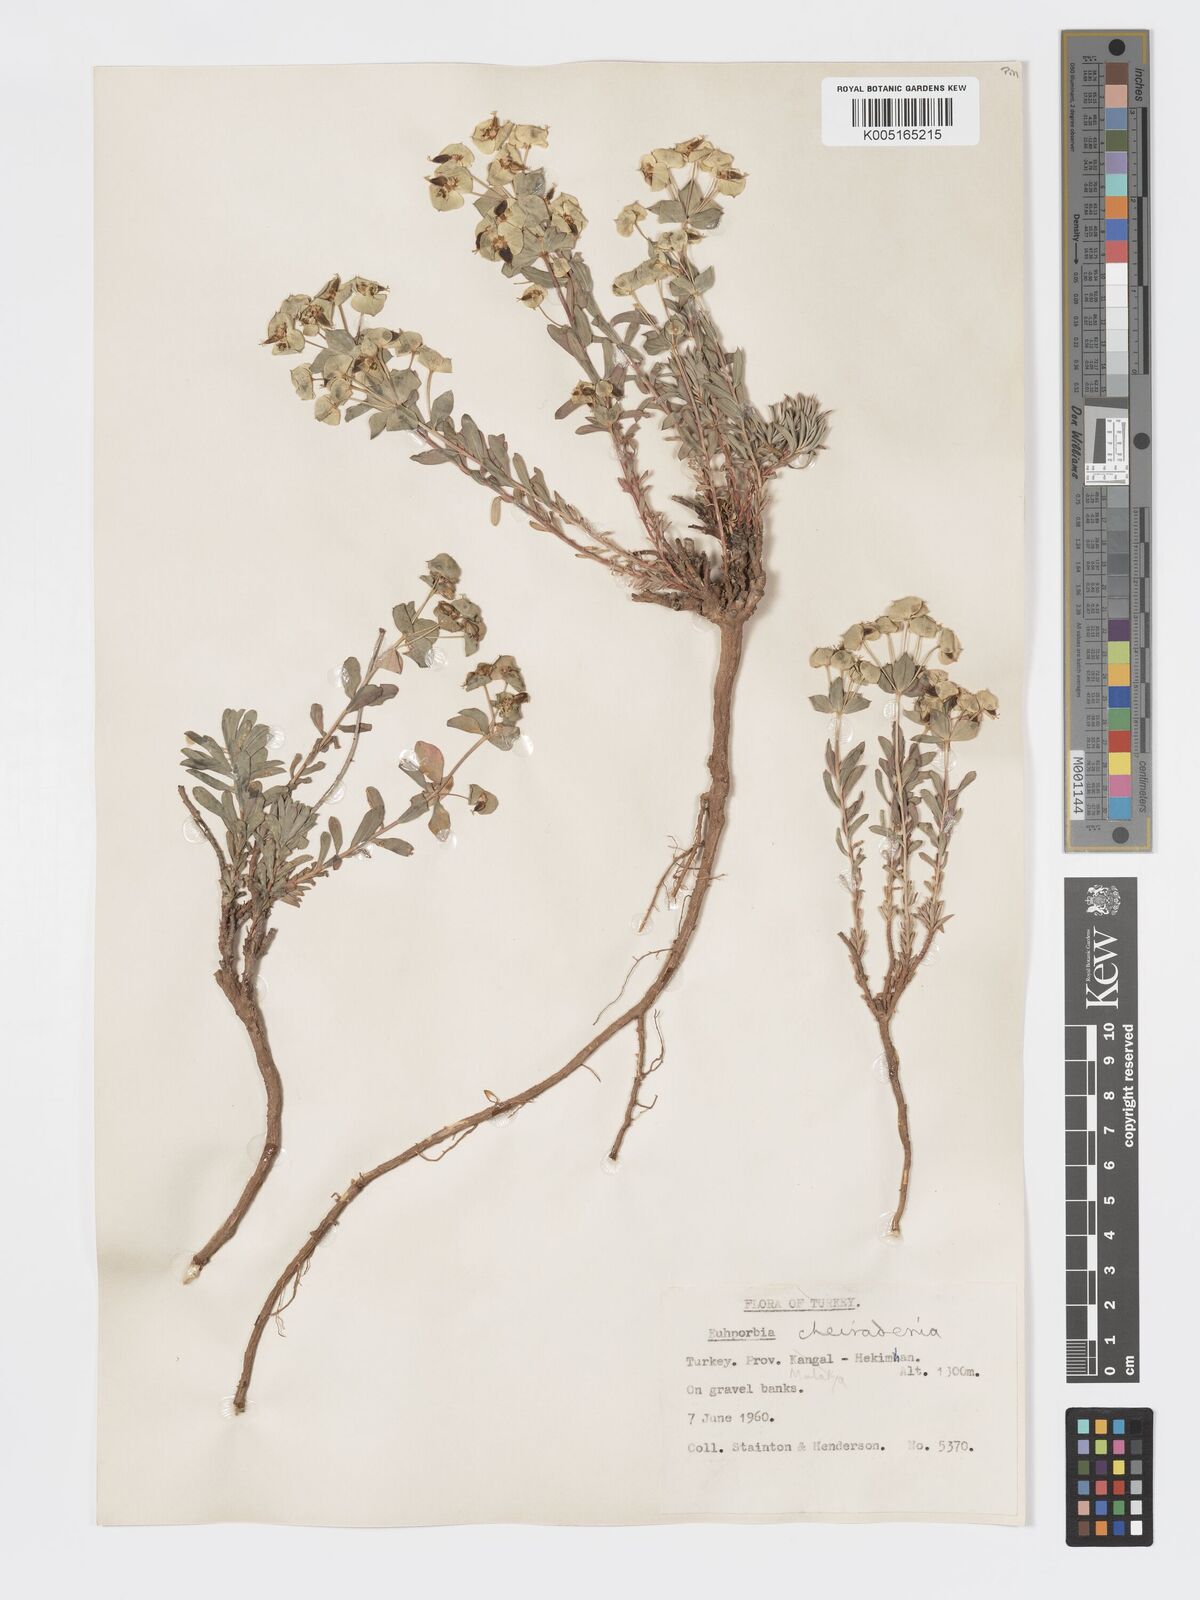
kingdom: Plantae
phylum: Tracheophyta
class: Magnoliopsida
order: Malpighiales
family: Euphorbiaceae
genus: Euphorbia
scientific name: Euphorbia cheiradenia
